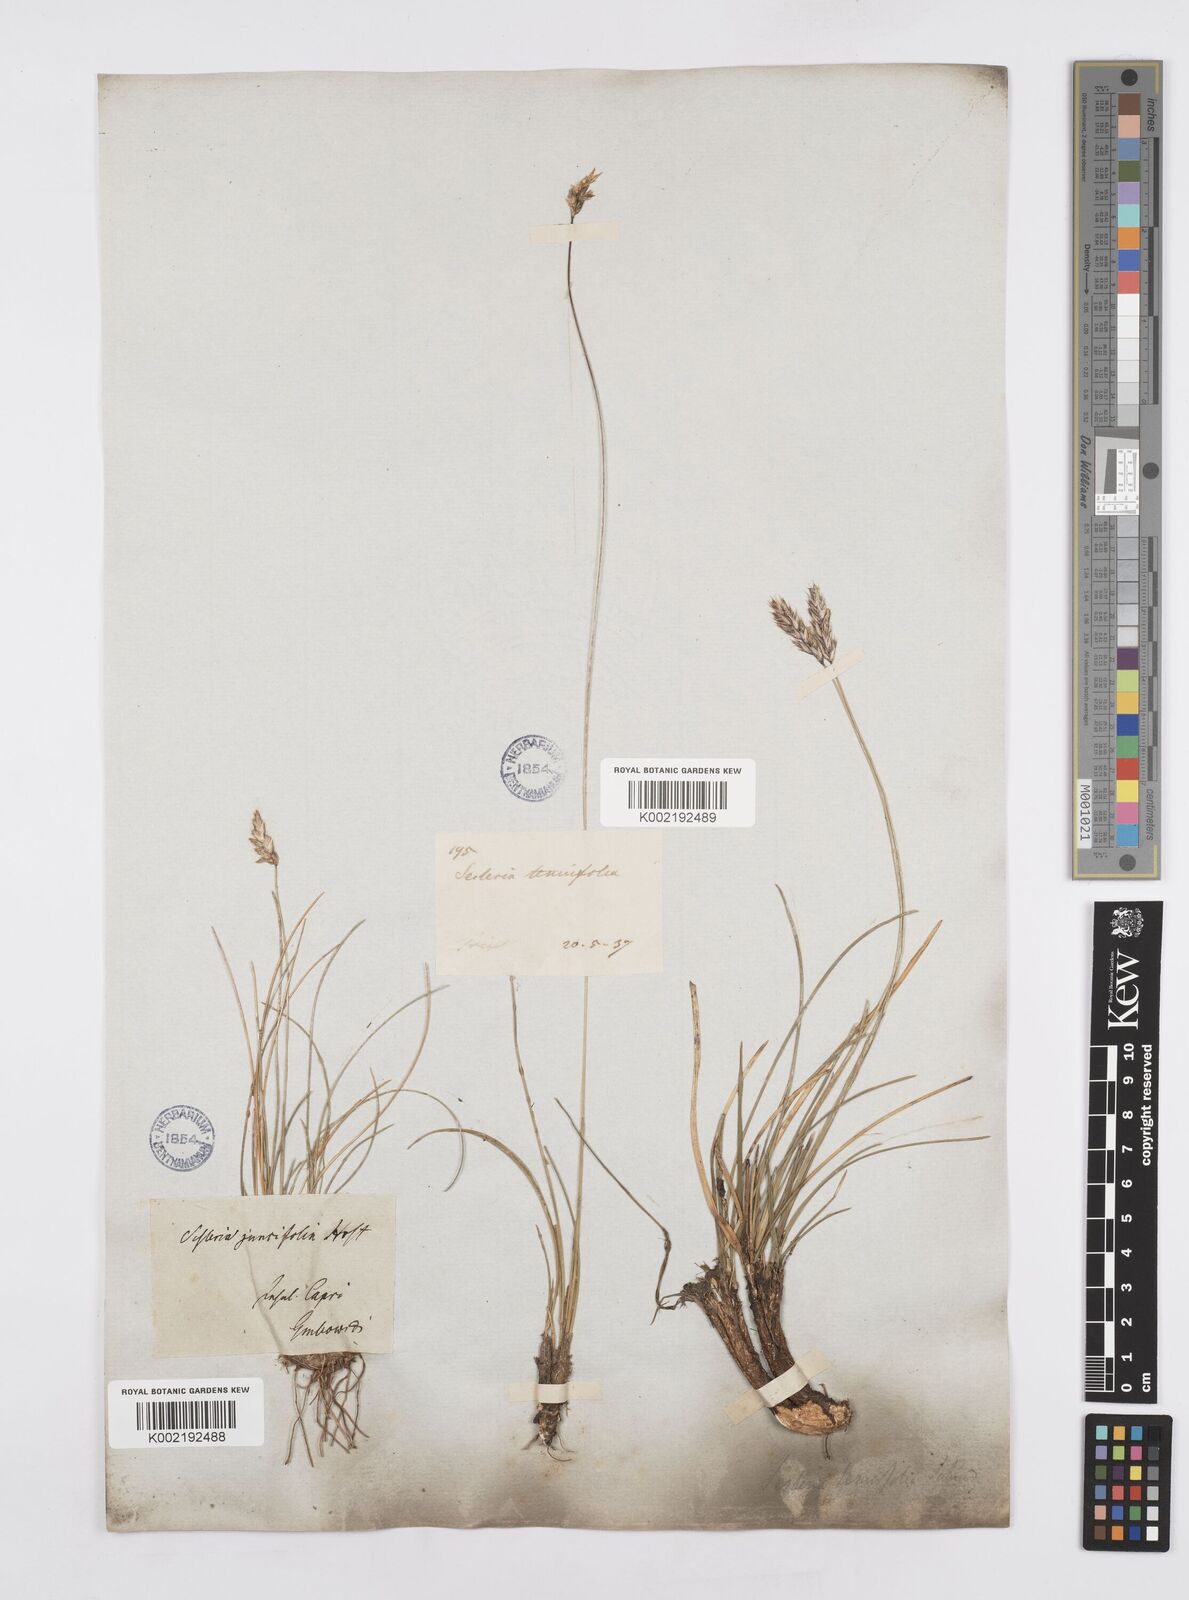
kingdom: Plantae
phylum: Tracheophyta
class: Liliopsida
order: Poales
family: Poaceae
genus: Sesleria
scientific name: Sesleria juncifolia
